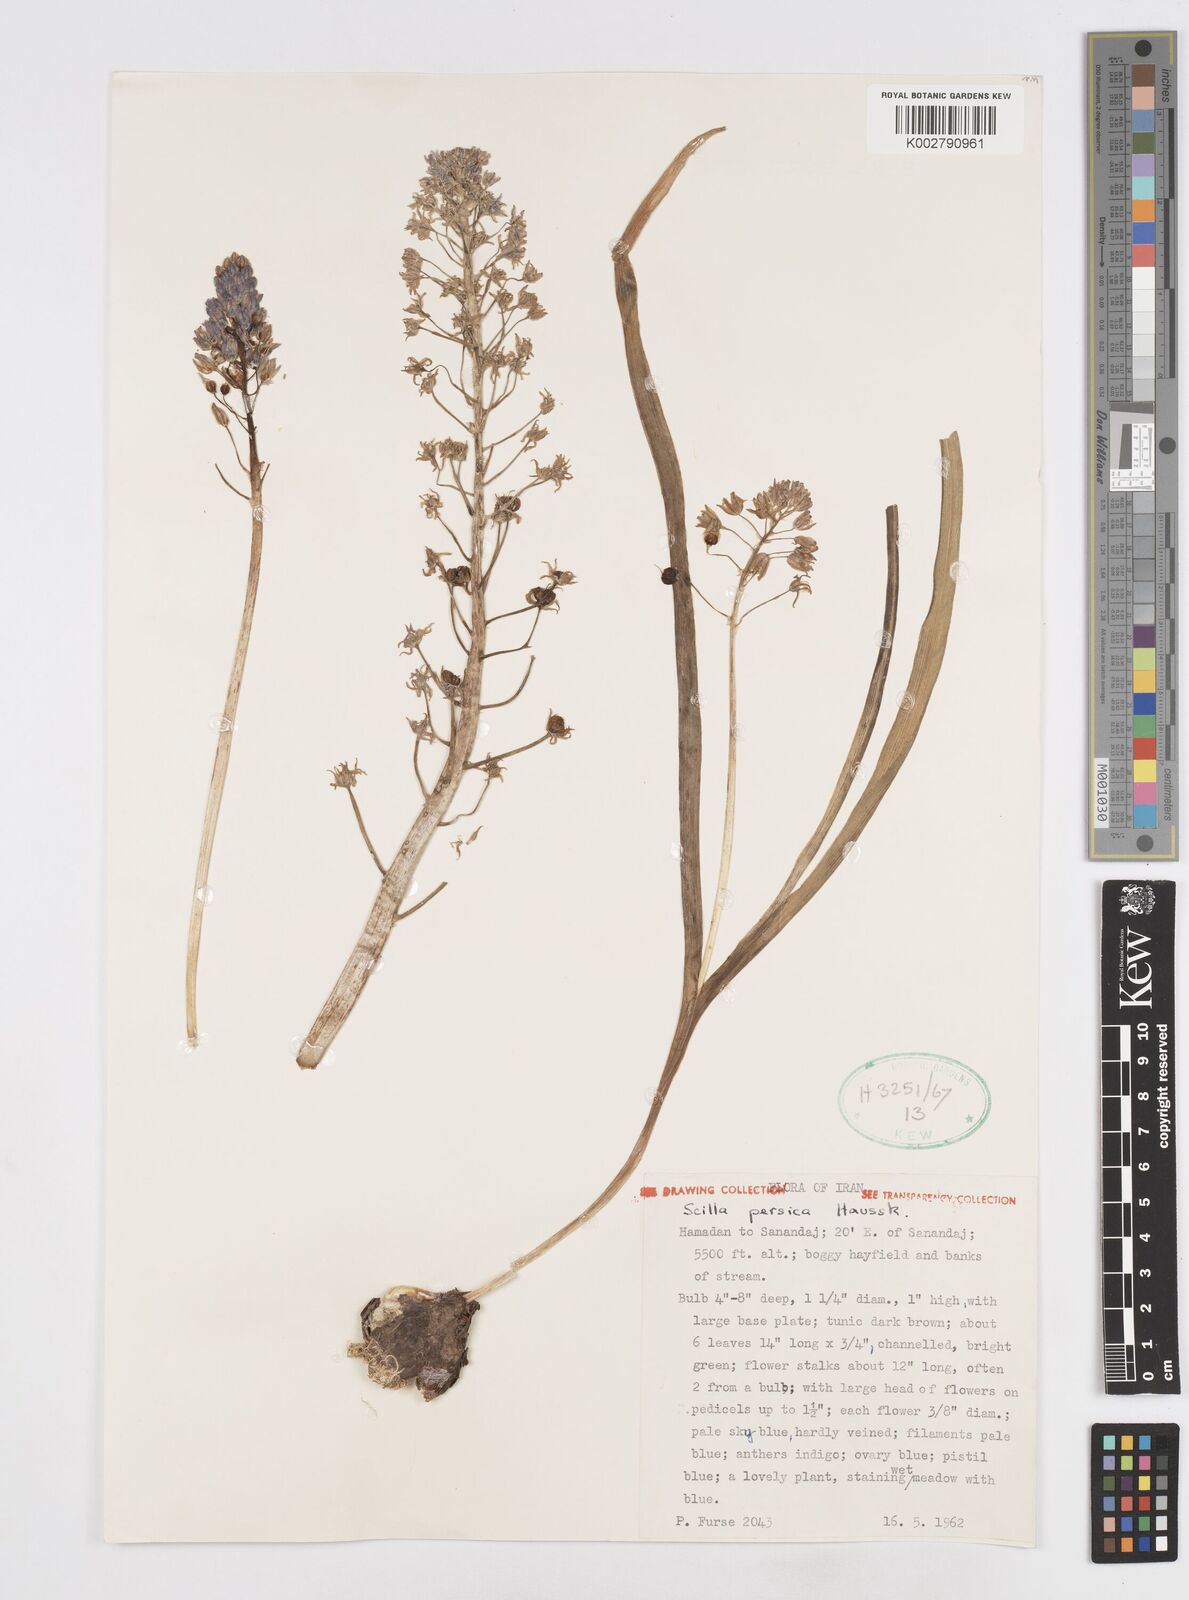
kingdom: Plantae
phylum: Tracheophyta
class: Liliopsida
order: Asparagales
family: Asparagaceae
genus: Zagrosia
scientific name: Zagrosia persica
